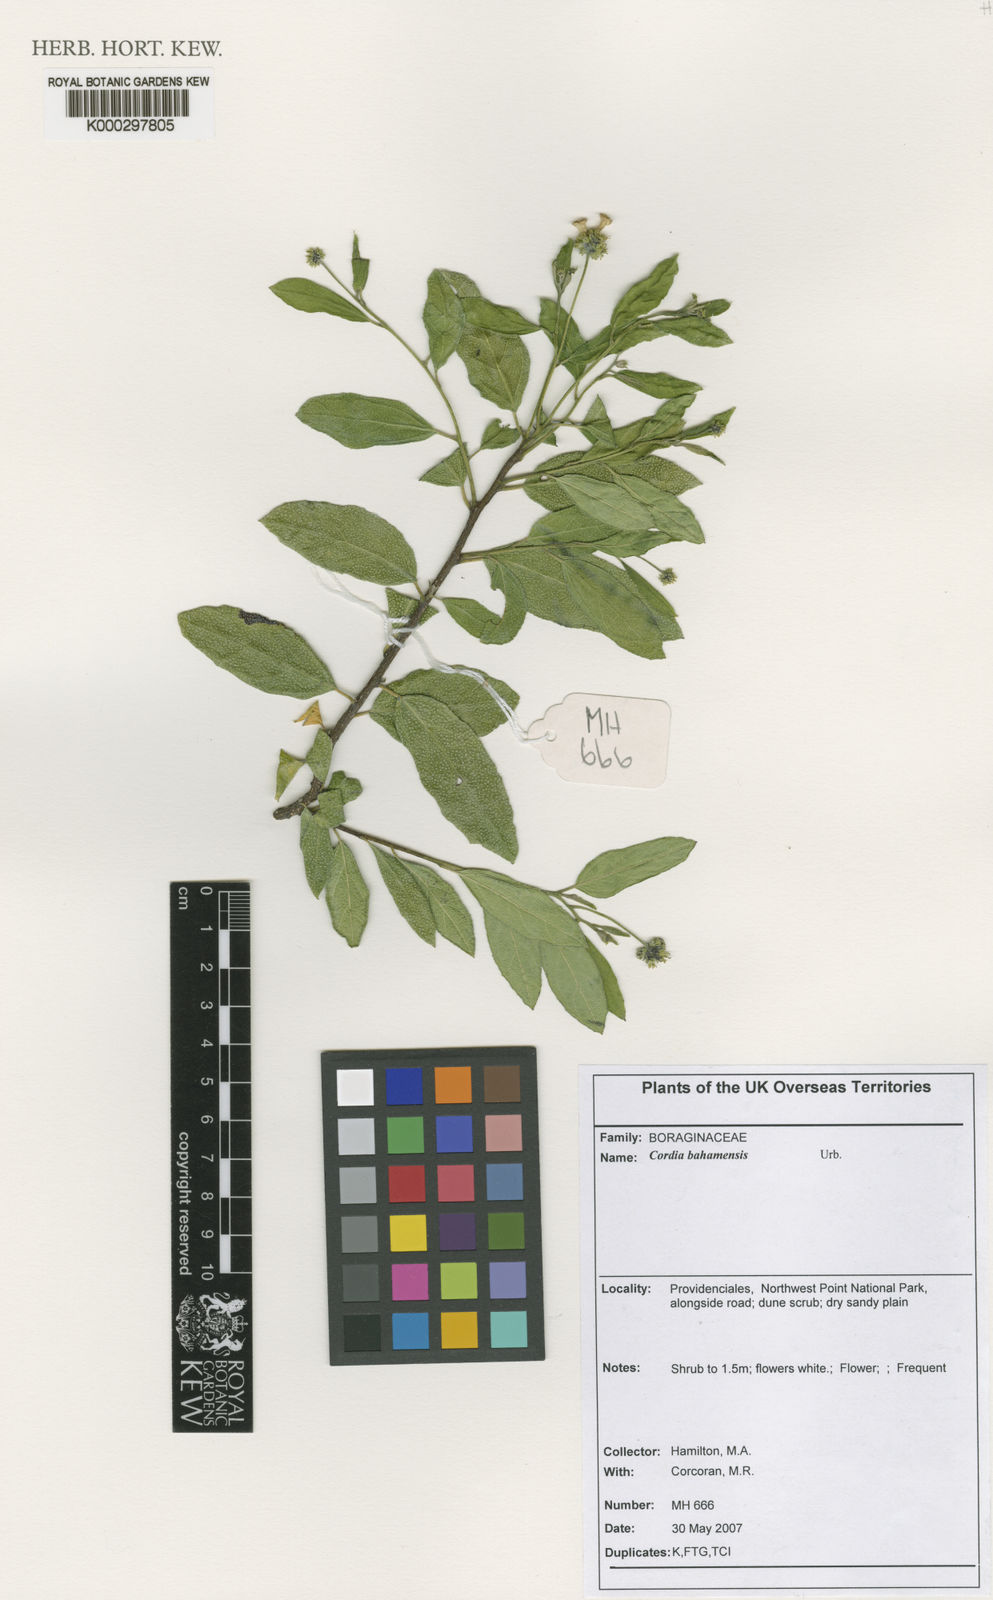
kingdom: Plantae
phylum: Tracheophyta
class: Magnoliopsida
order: Boraginales
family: Cordiaceae
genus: Varronia
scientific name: Varronia bahamensis
